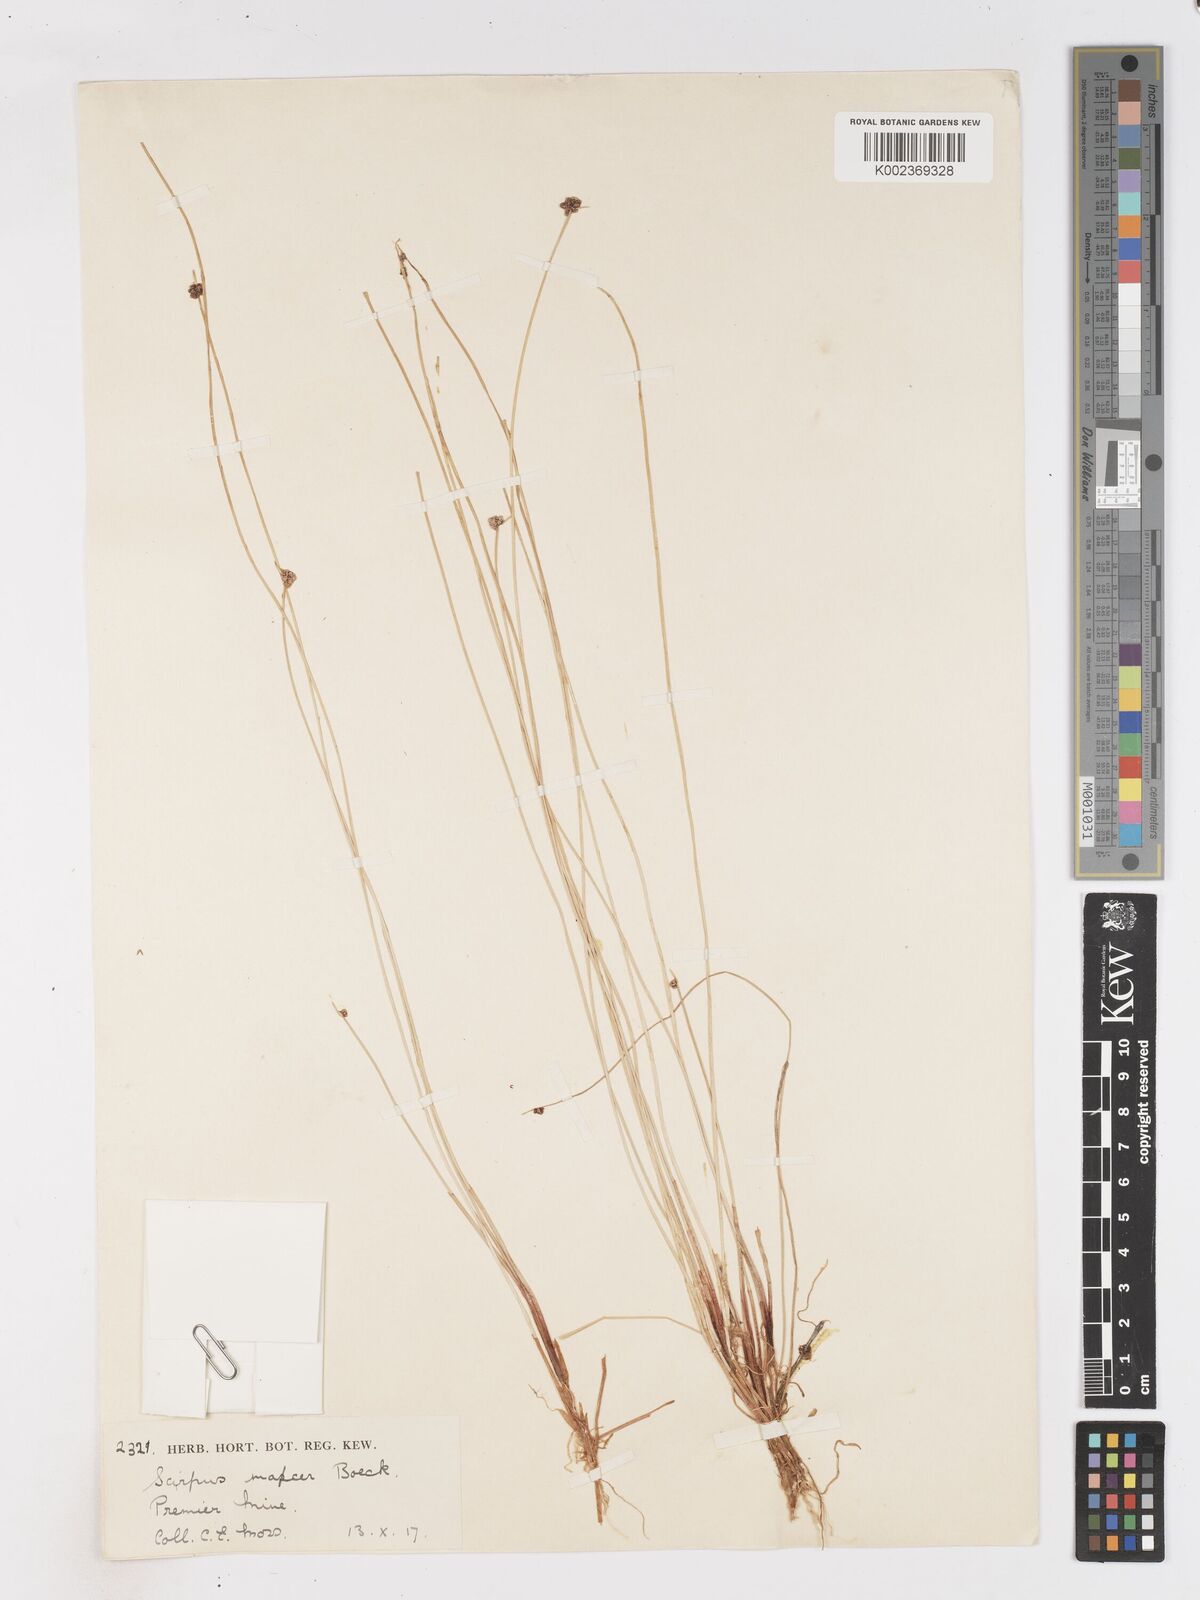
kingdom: Plantae
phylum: Tracheophyta
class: Liliopsida
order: Poales
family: Cyperaceae
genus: Isolepis
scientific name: Isolepis costata
